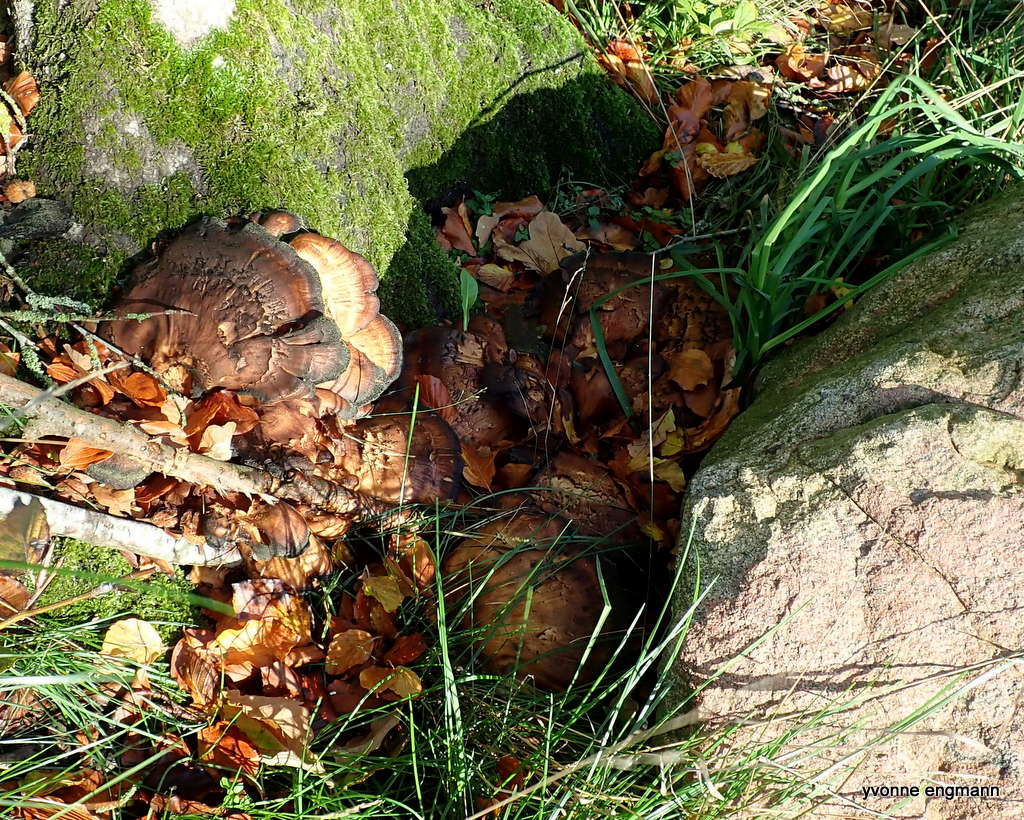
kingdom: Fungi
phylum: Basidiomycota
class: Agaricomycetes
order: Polyporales
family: Meripilaceae
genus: Meripilus
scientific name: Meripilus giganteus
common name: kæmpeporesvamp
